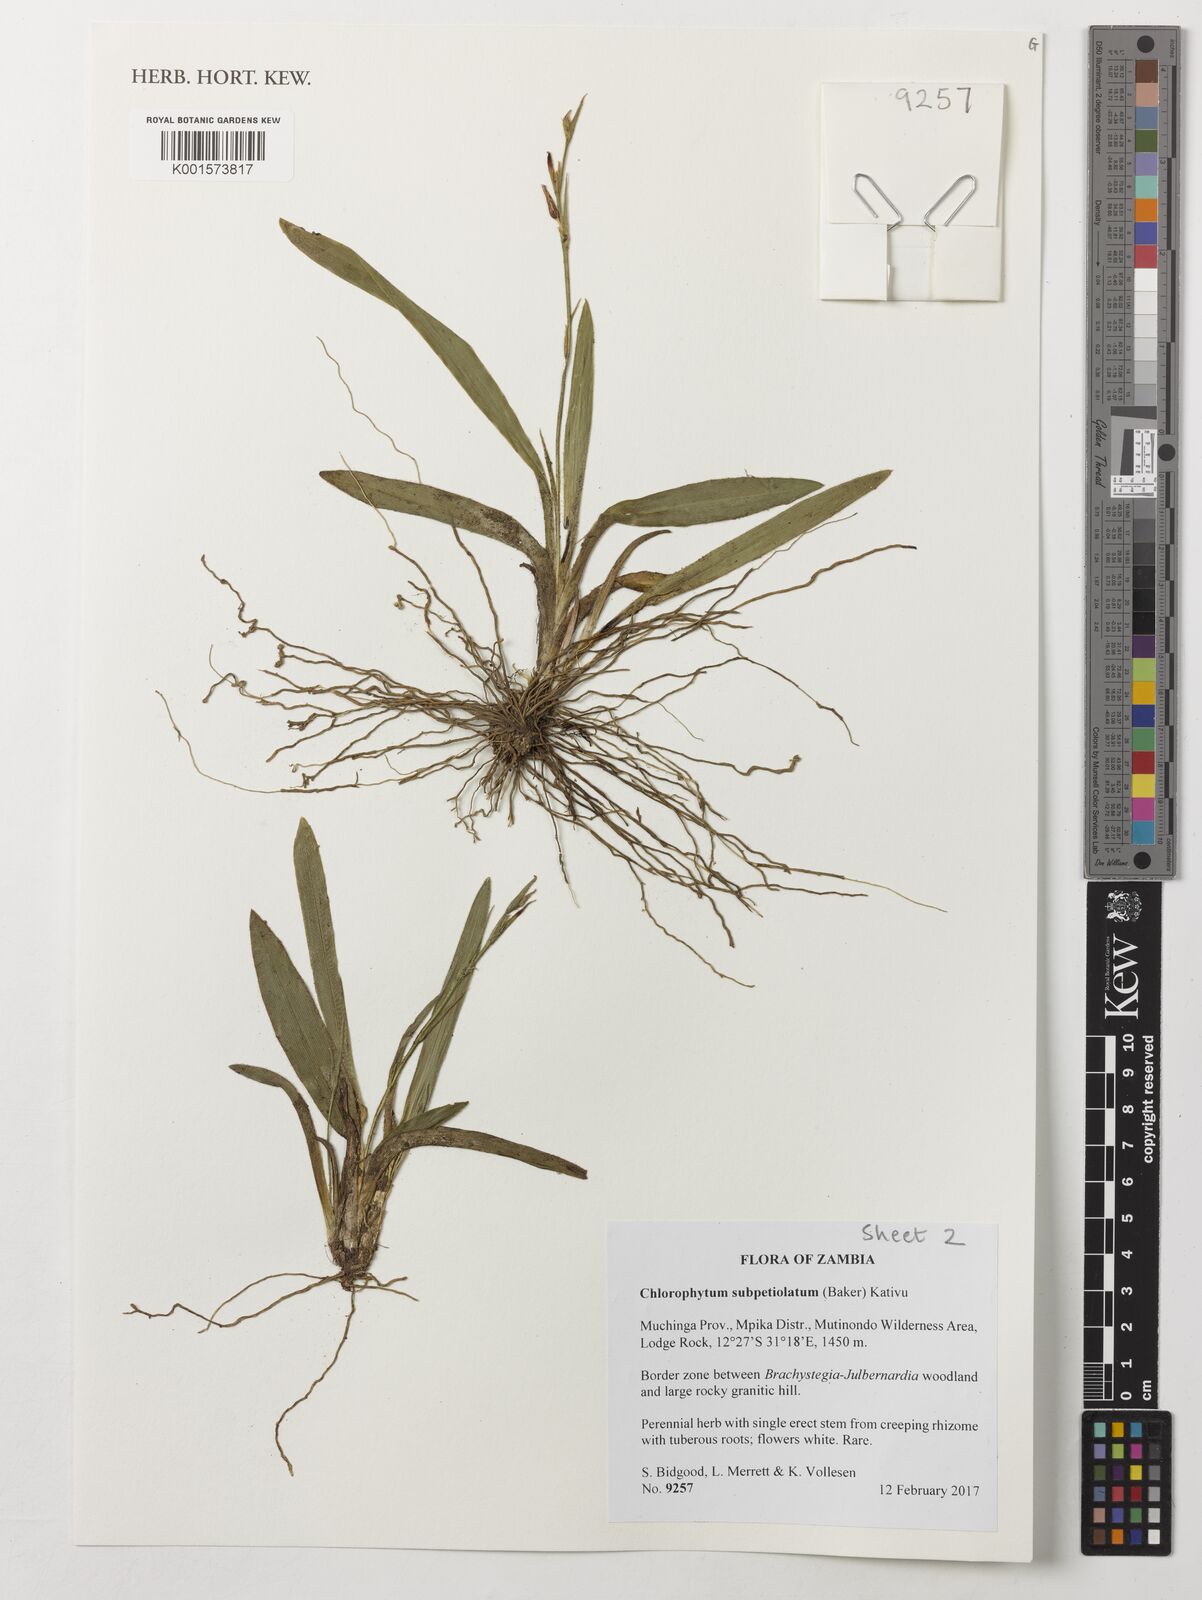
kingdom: Plantae
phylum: Tracheophyta
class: Liliopsida
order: Asparagales
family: Asparagaceae
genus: Chlorophytum
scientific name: Chlorophytum subpetiolatum
